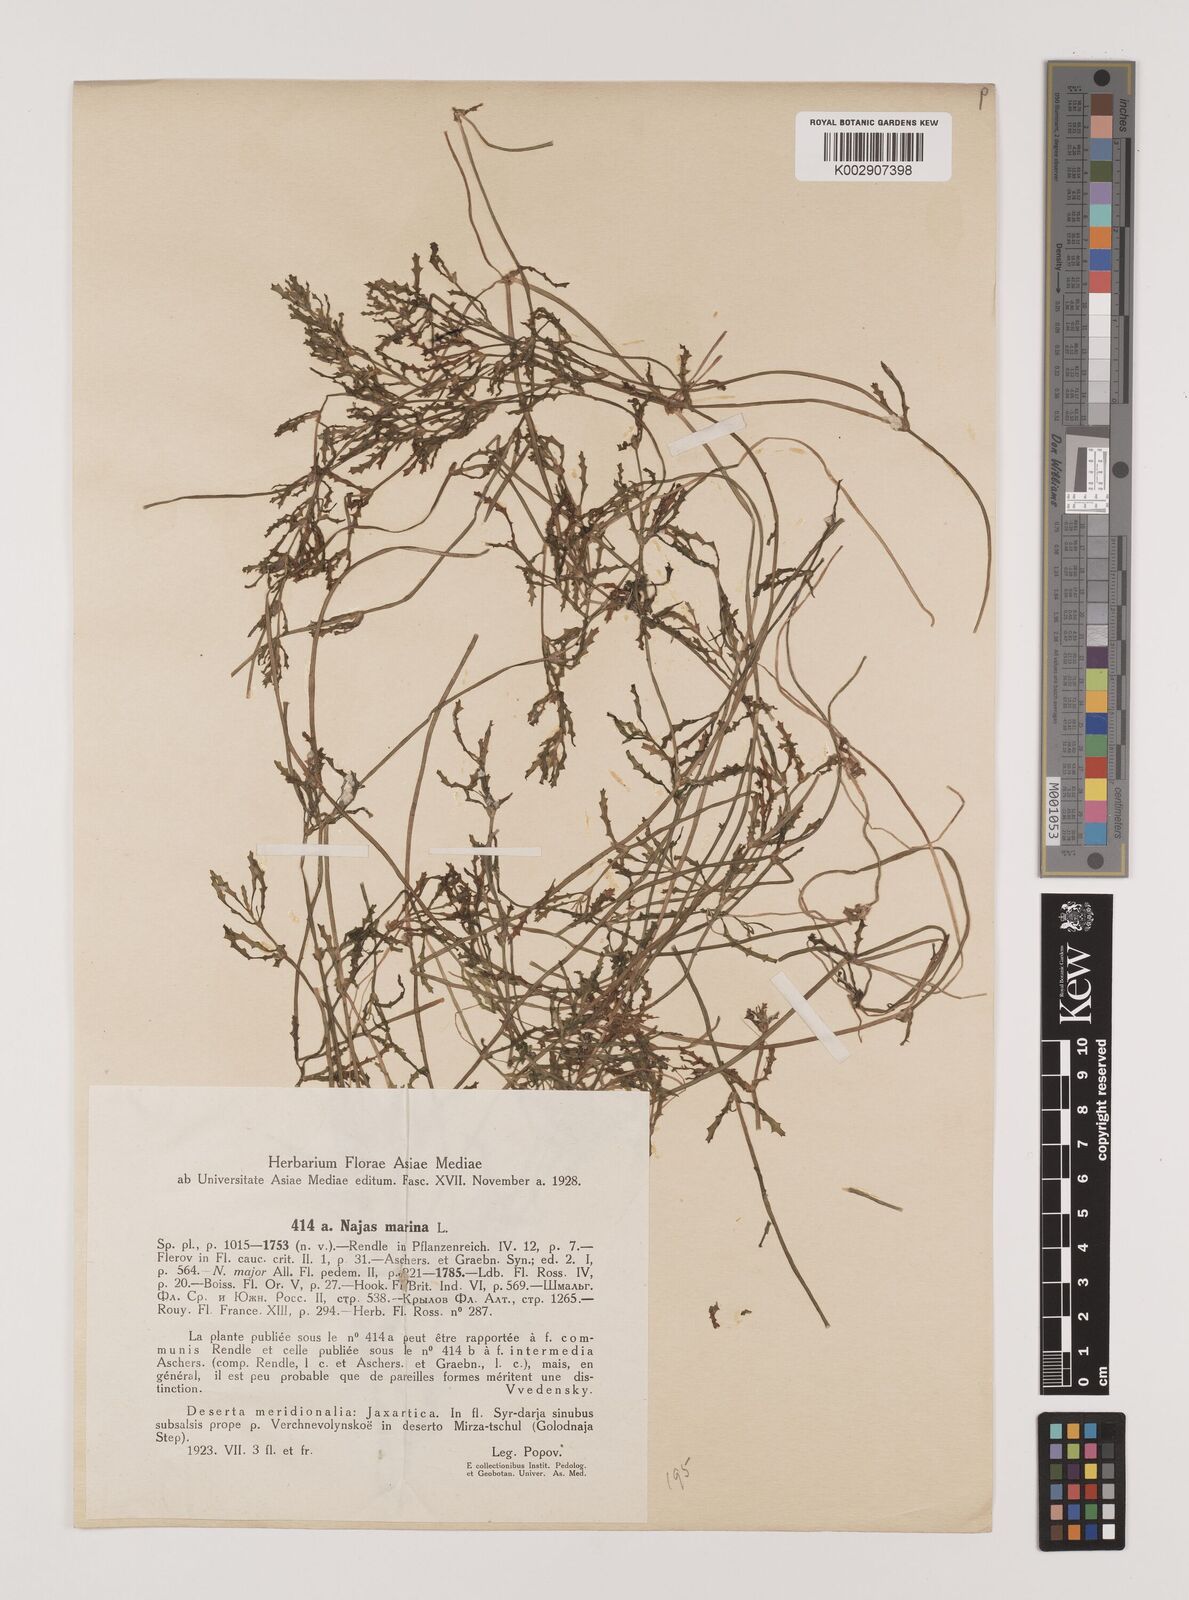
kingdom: Plantae
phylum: Tracheophyta
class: Liliopsida
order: Alismatales
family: Hydrocharitaceae
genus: Najas
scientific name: Najas marina
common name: Holly-leaved naiad
